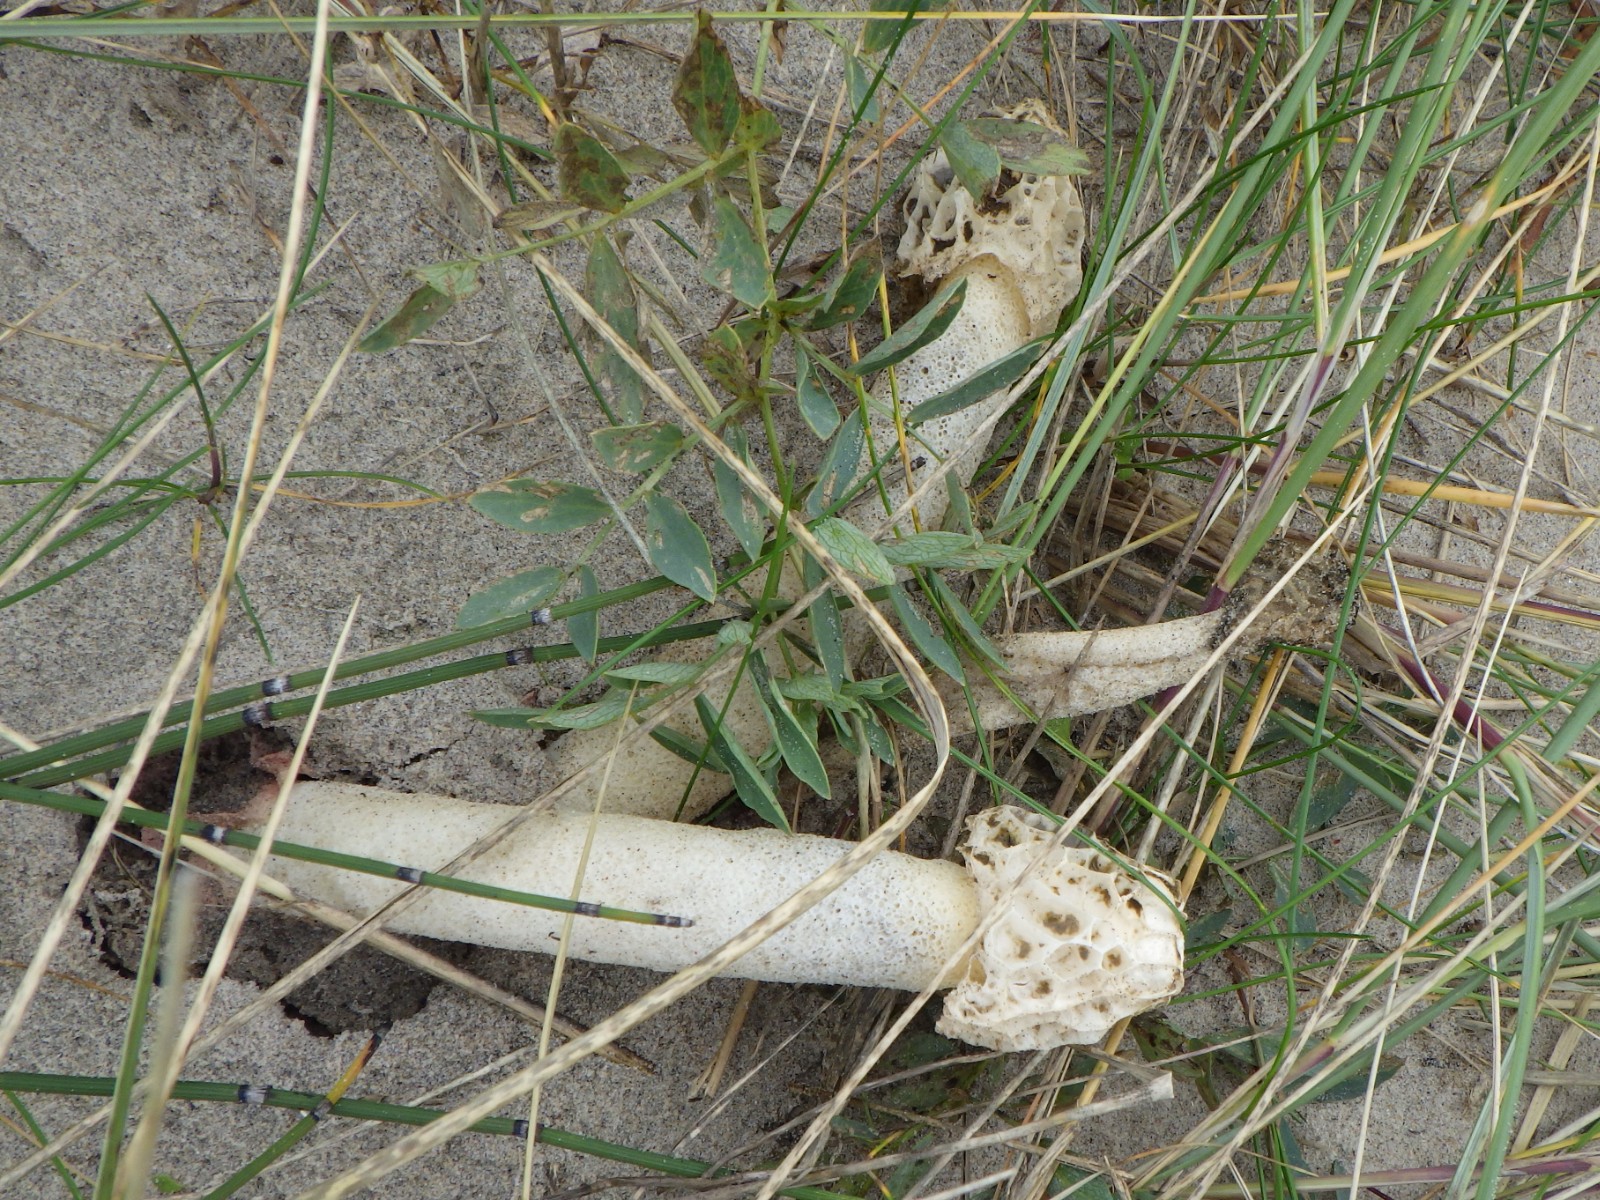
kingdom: Fungi
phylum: Basidiomycota
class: Agaricomycetes
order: Phallales
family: Phallaceae
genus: Phallus
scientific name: Phallus hadriani
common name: sand-stinksvamp
